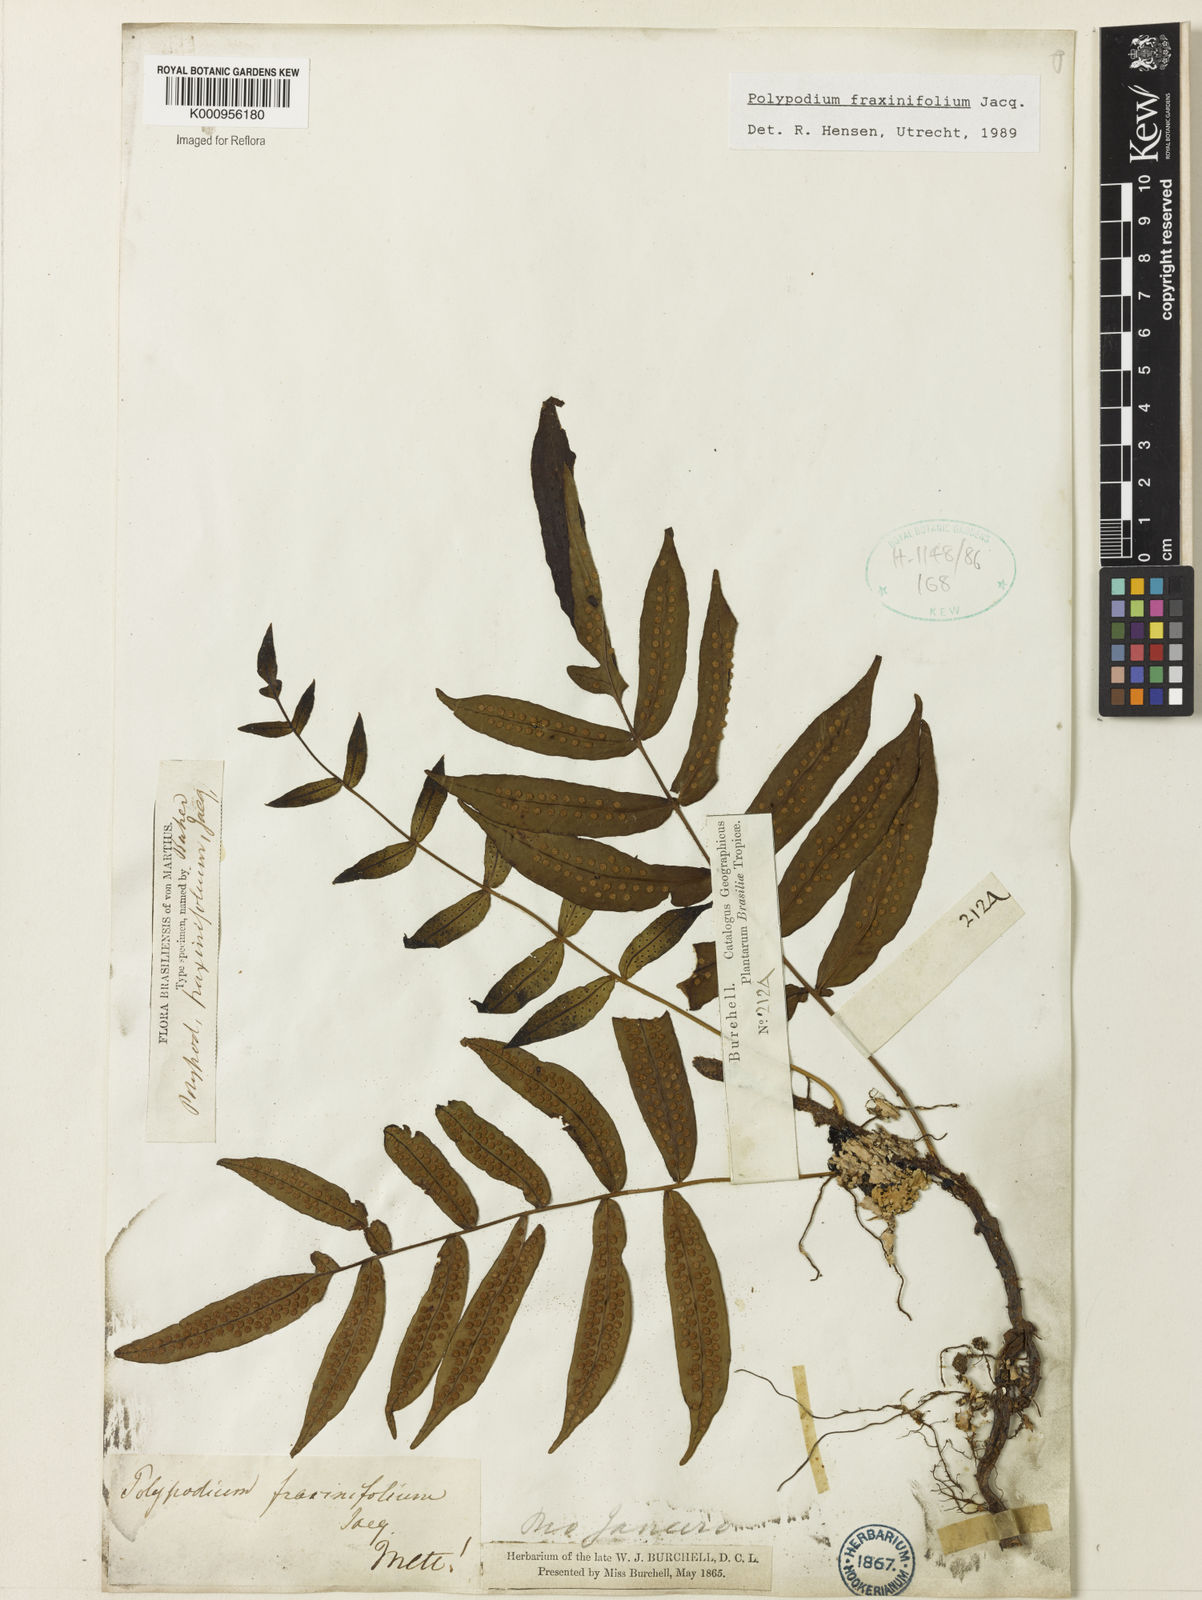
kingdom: Plantae
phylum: Tracheophyta
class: Polypodiopsida
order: Polypodiales
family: Polypodiaceae
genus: Serpocaulon
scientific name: Serpocaulon fraxinifolium
